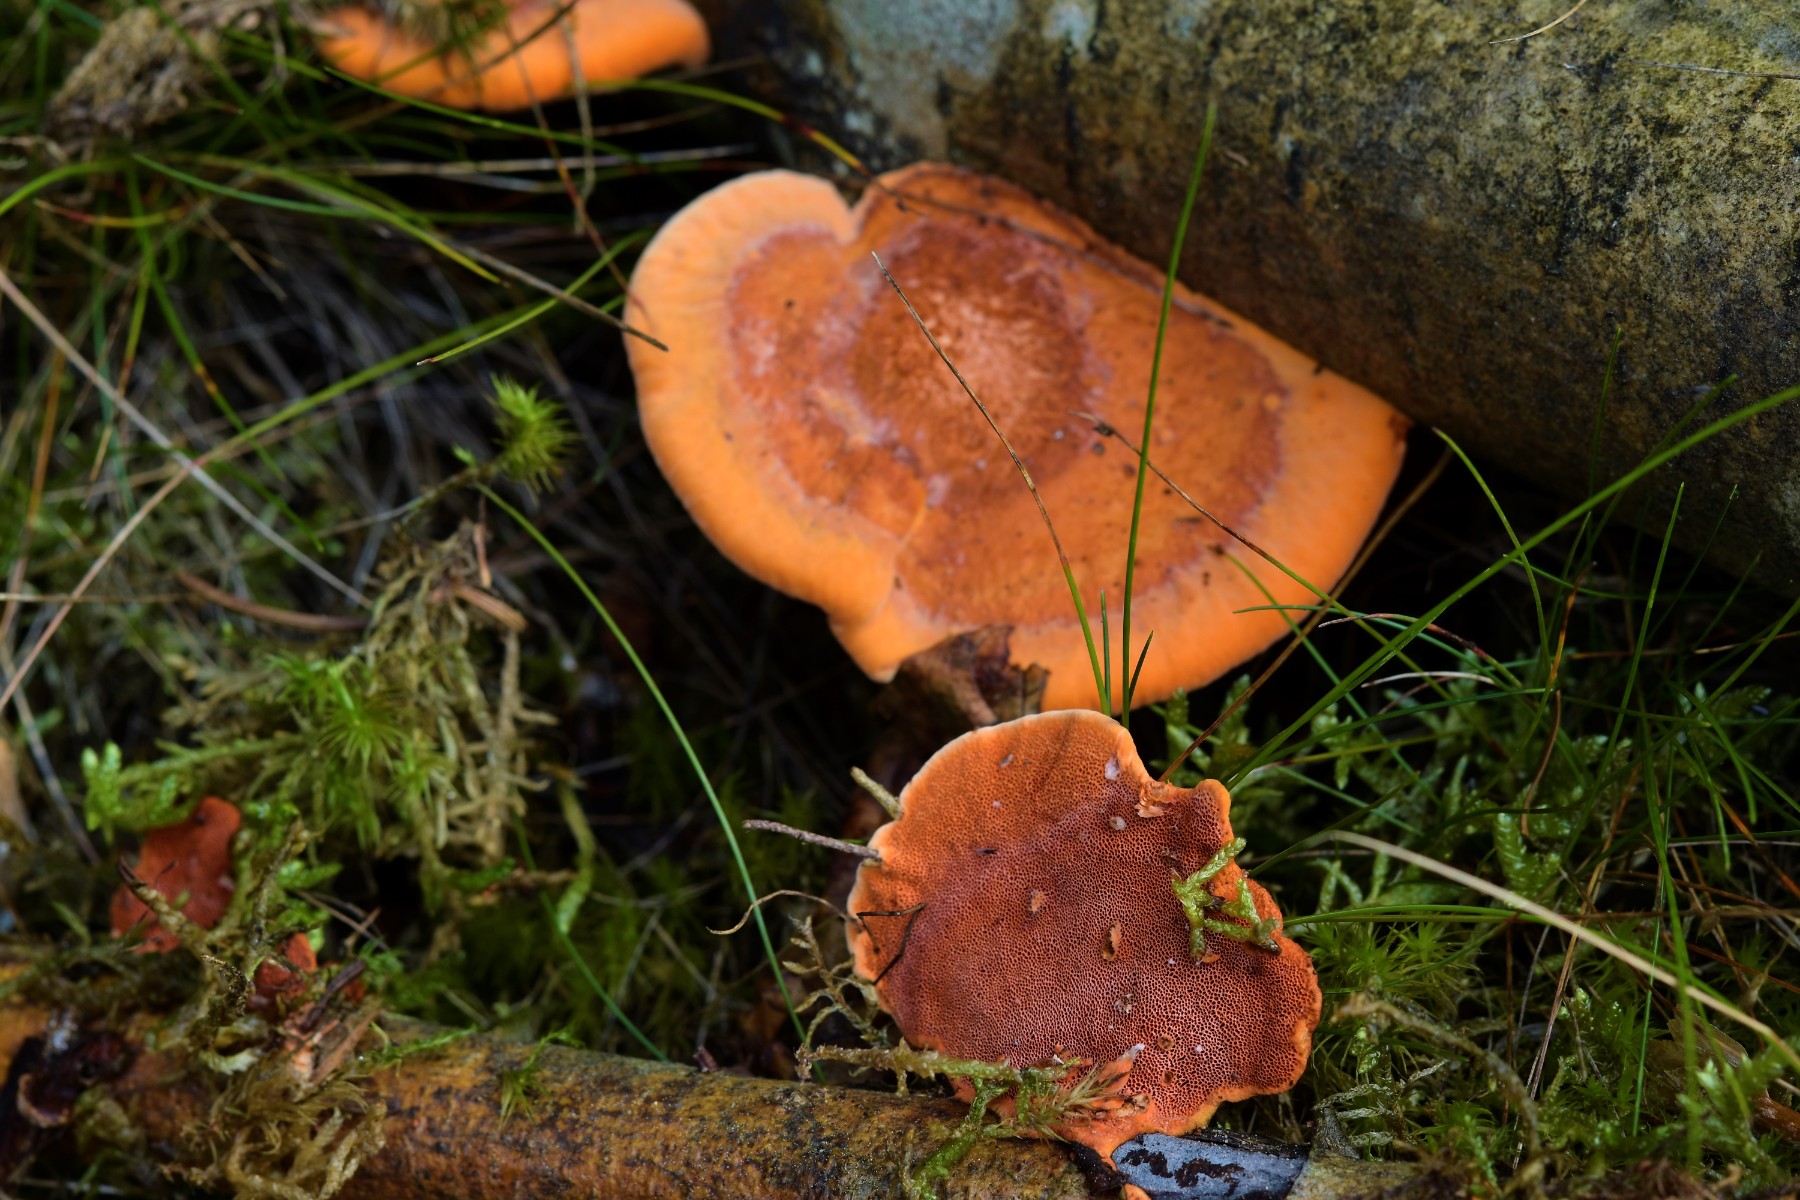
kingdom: Fungi
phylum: Basidiomycota
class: Agaricomycetes
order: Polyporales
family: Polyporaceae
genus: Trametes
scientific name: Trametes cinnabarina
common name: cinnoberporesvamp
